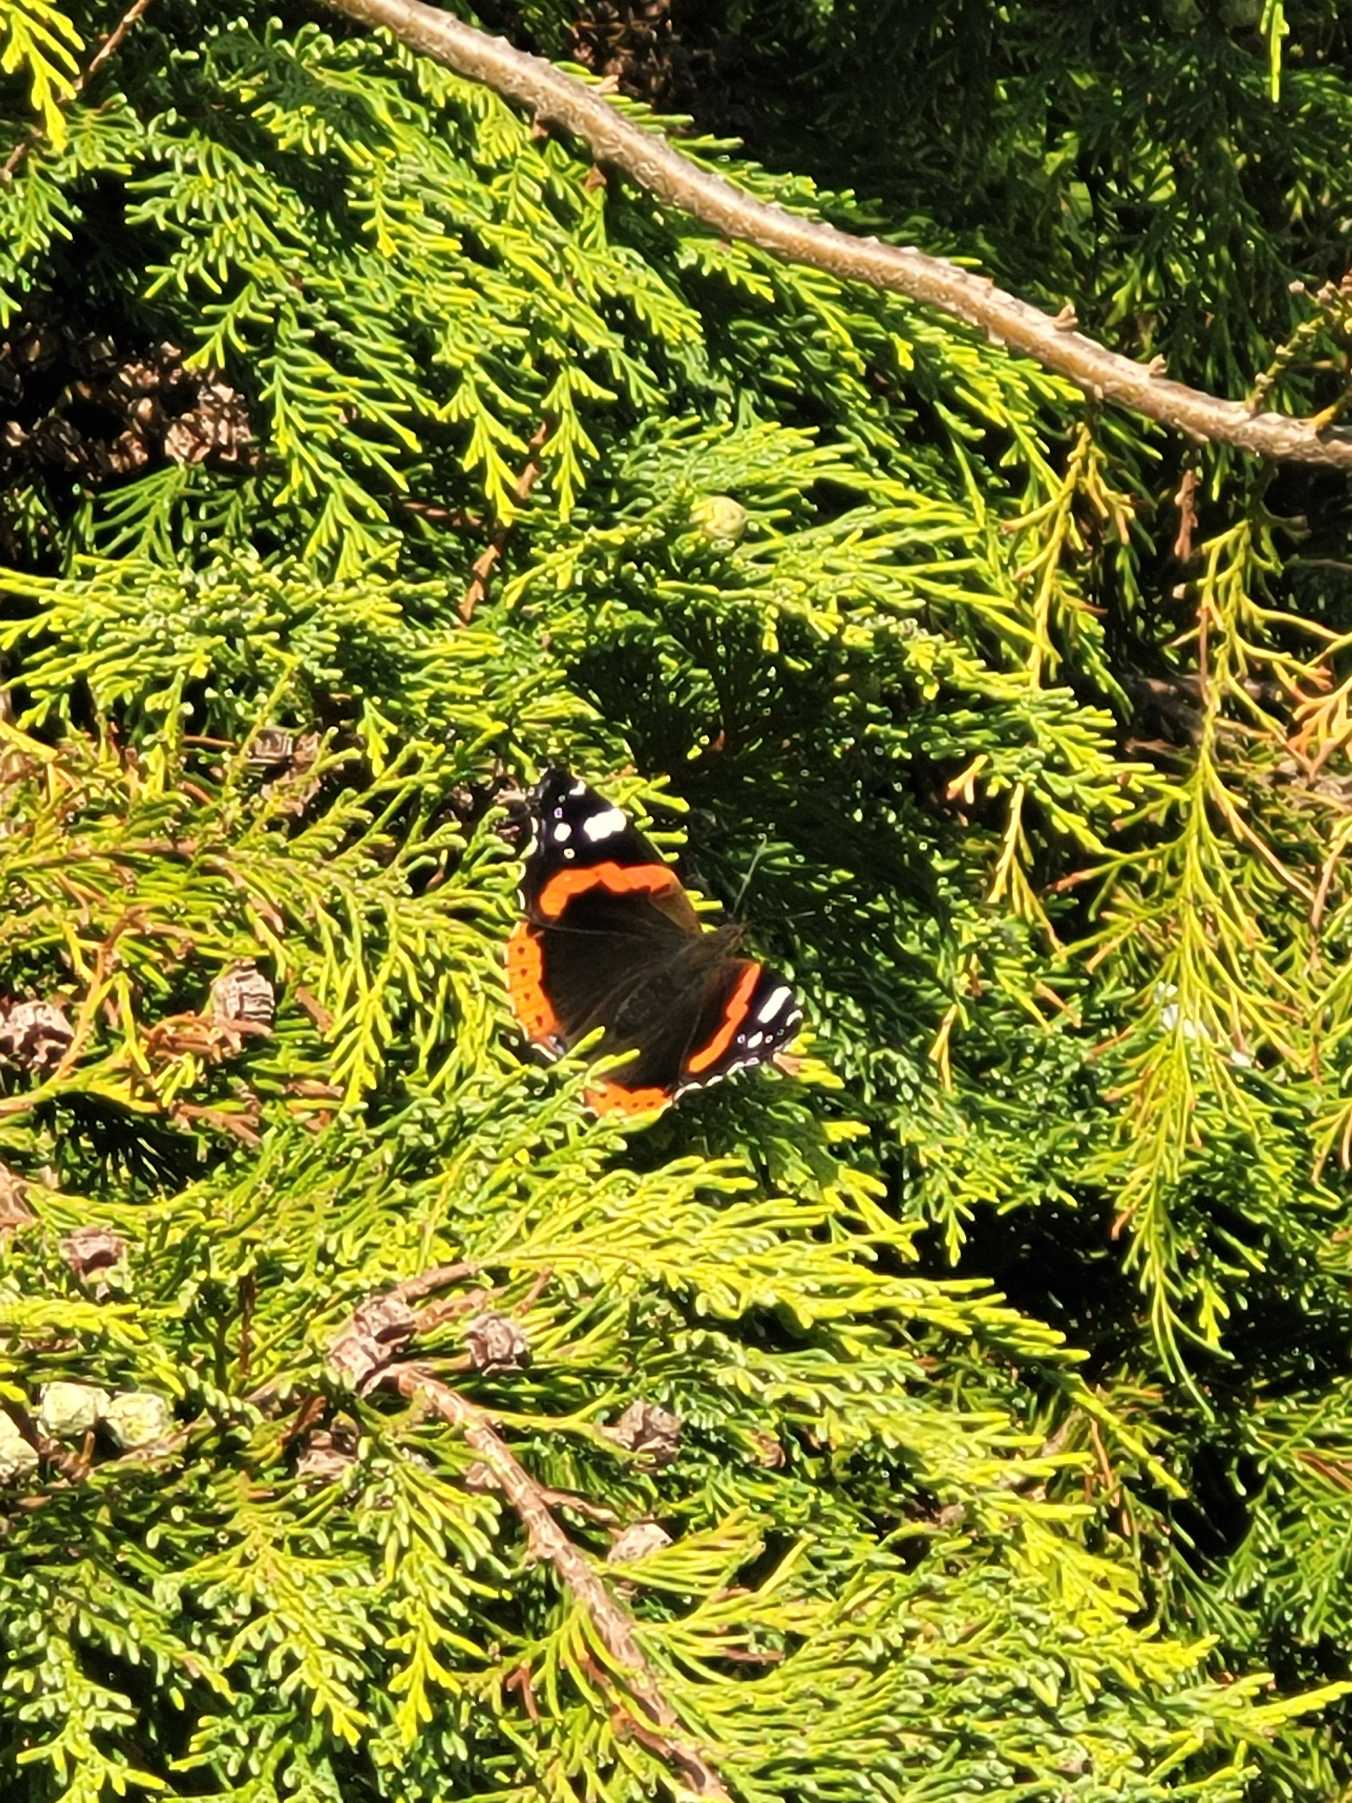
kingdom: Animalia
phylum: Arthropoda
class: Insecta
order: Lepidoptera
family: Nymphalidae
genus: Vanessa
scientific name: Vanessa atalanta
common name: Admiral
